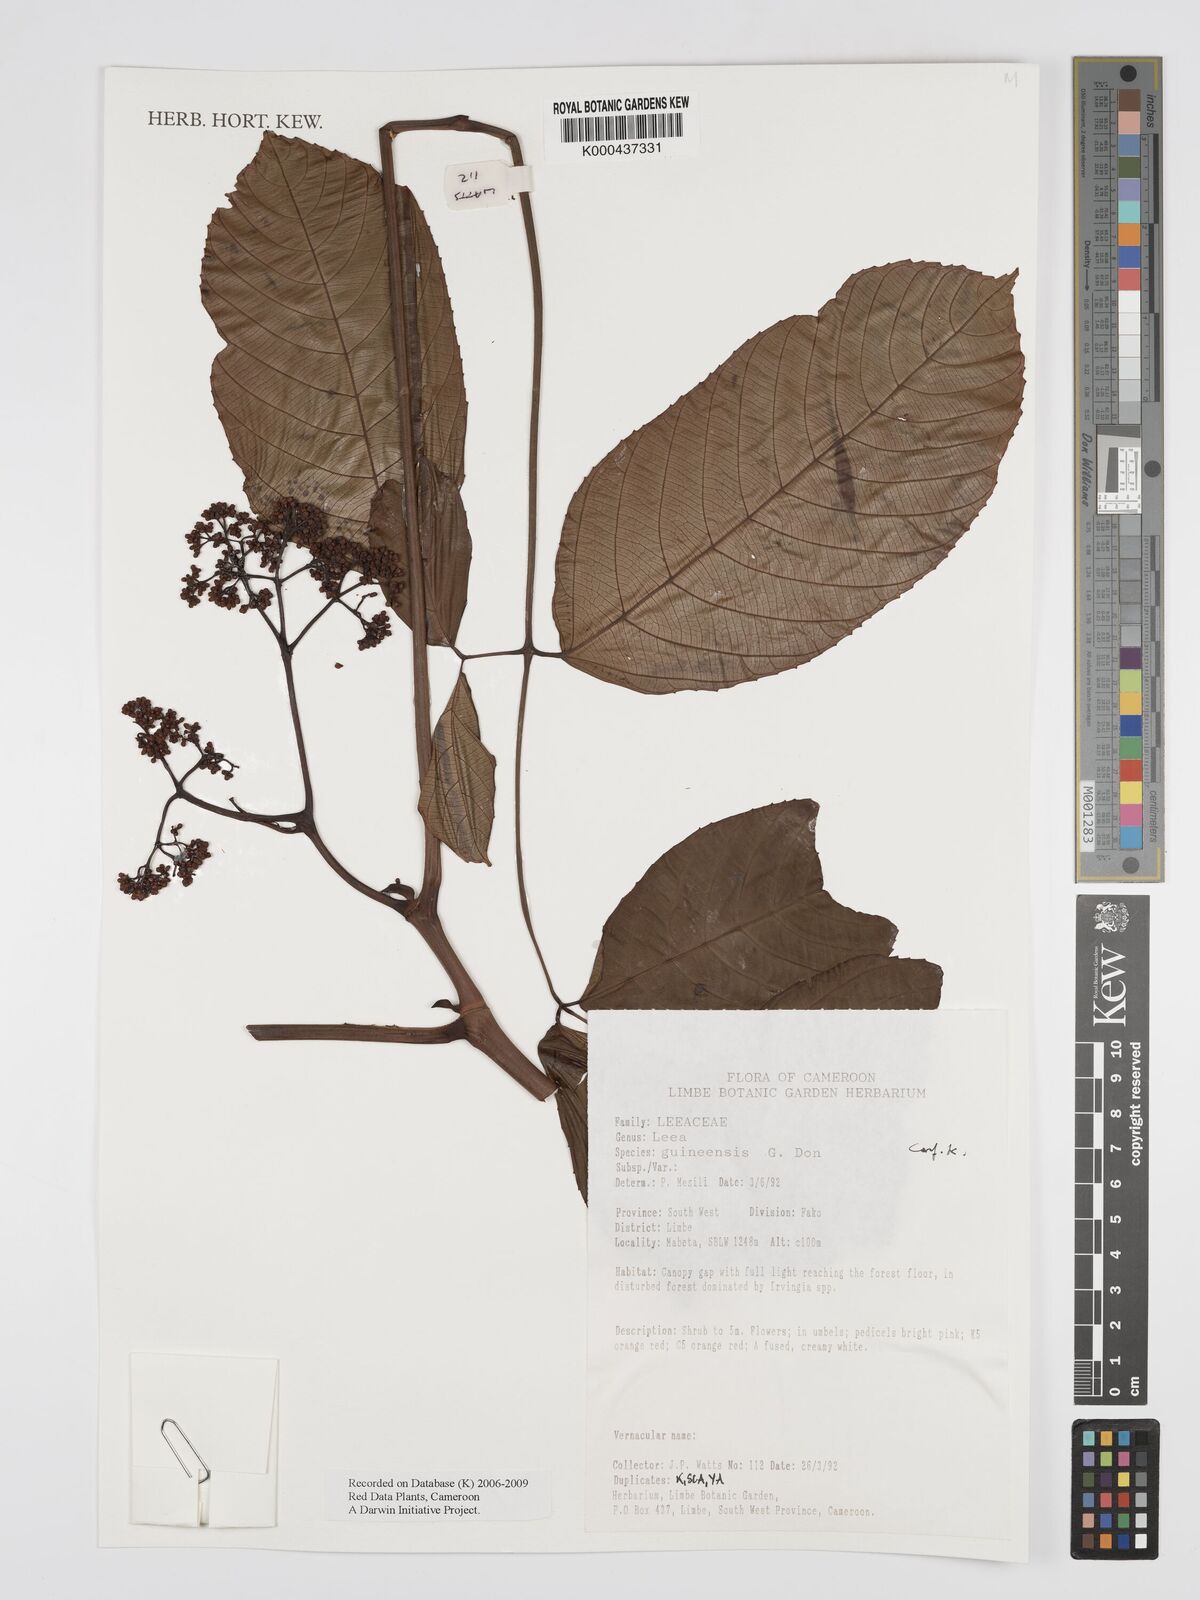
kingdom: Plantae
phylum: Tracheophyta
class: Magnoliopsida
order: Vitales
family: Vitaceae
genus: Leea
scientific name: Leea guineensis
